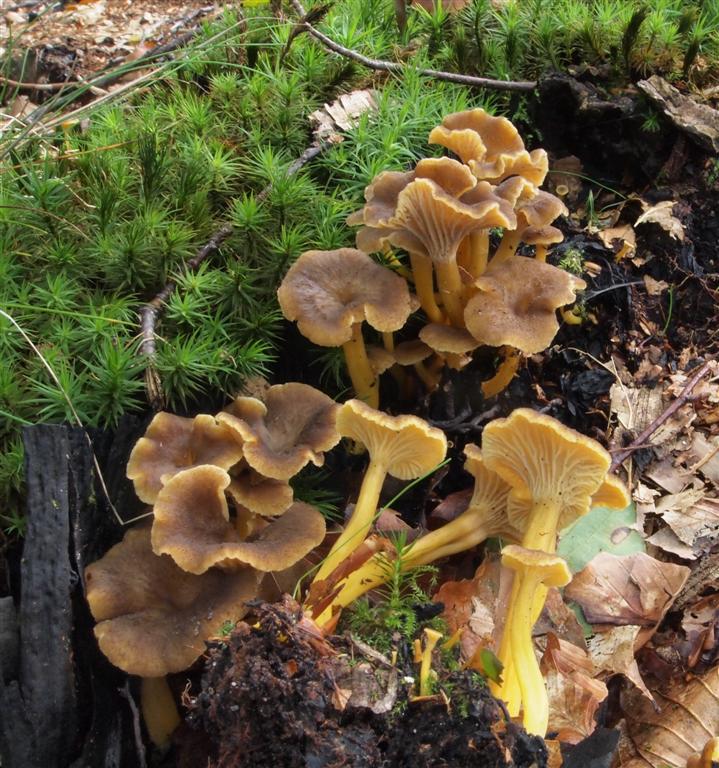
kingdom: Fungi
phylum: Basidiomycota
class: Agaricomycetes
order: Cantharellales
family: Hydnaceae
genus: Craterellus
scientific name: Craterellus tubaeformis
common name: tragt-kantarel
